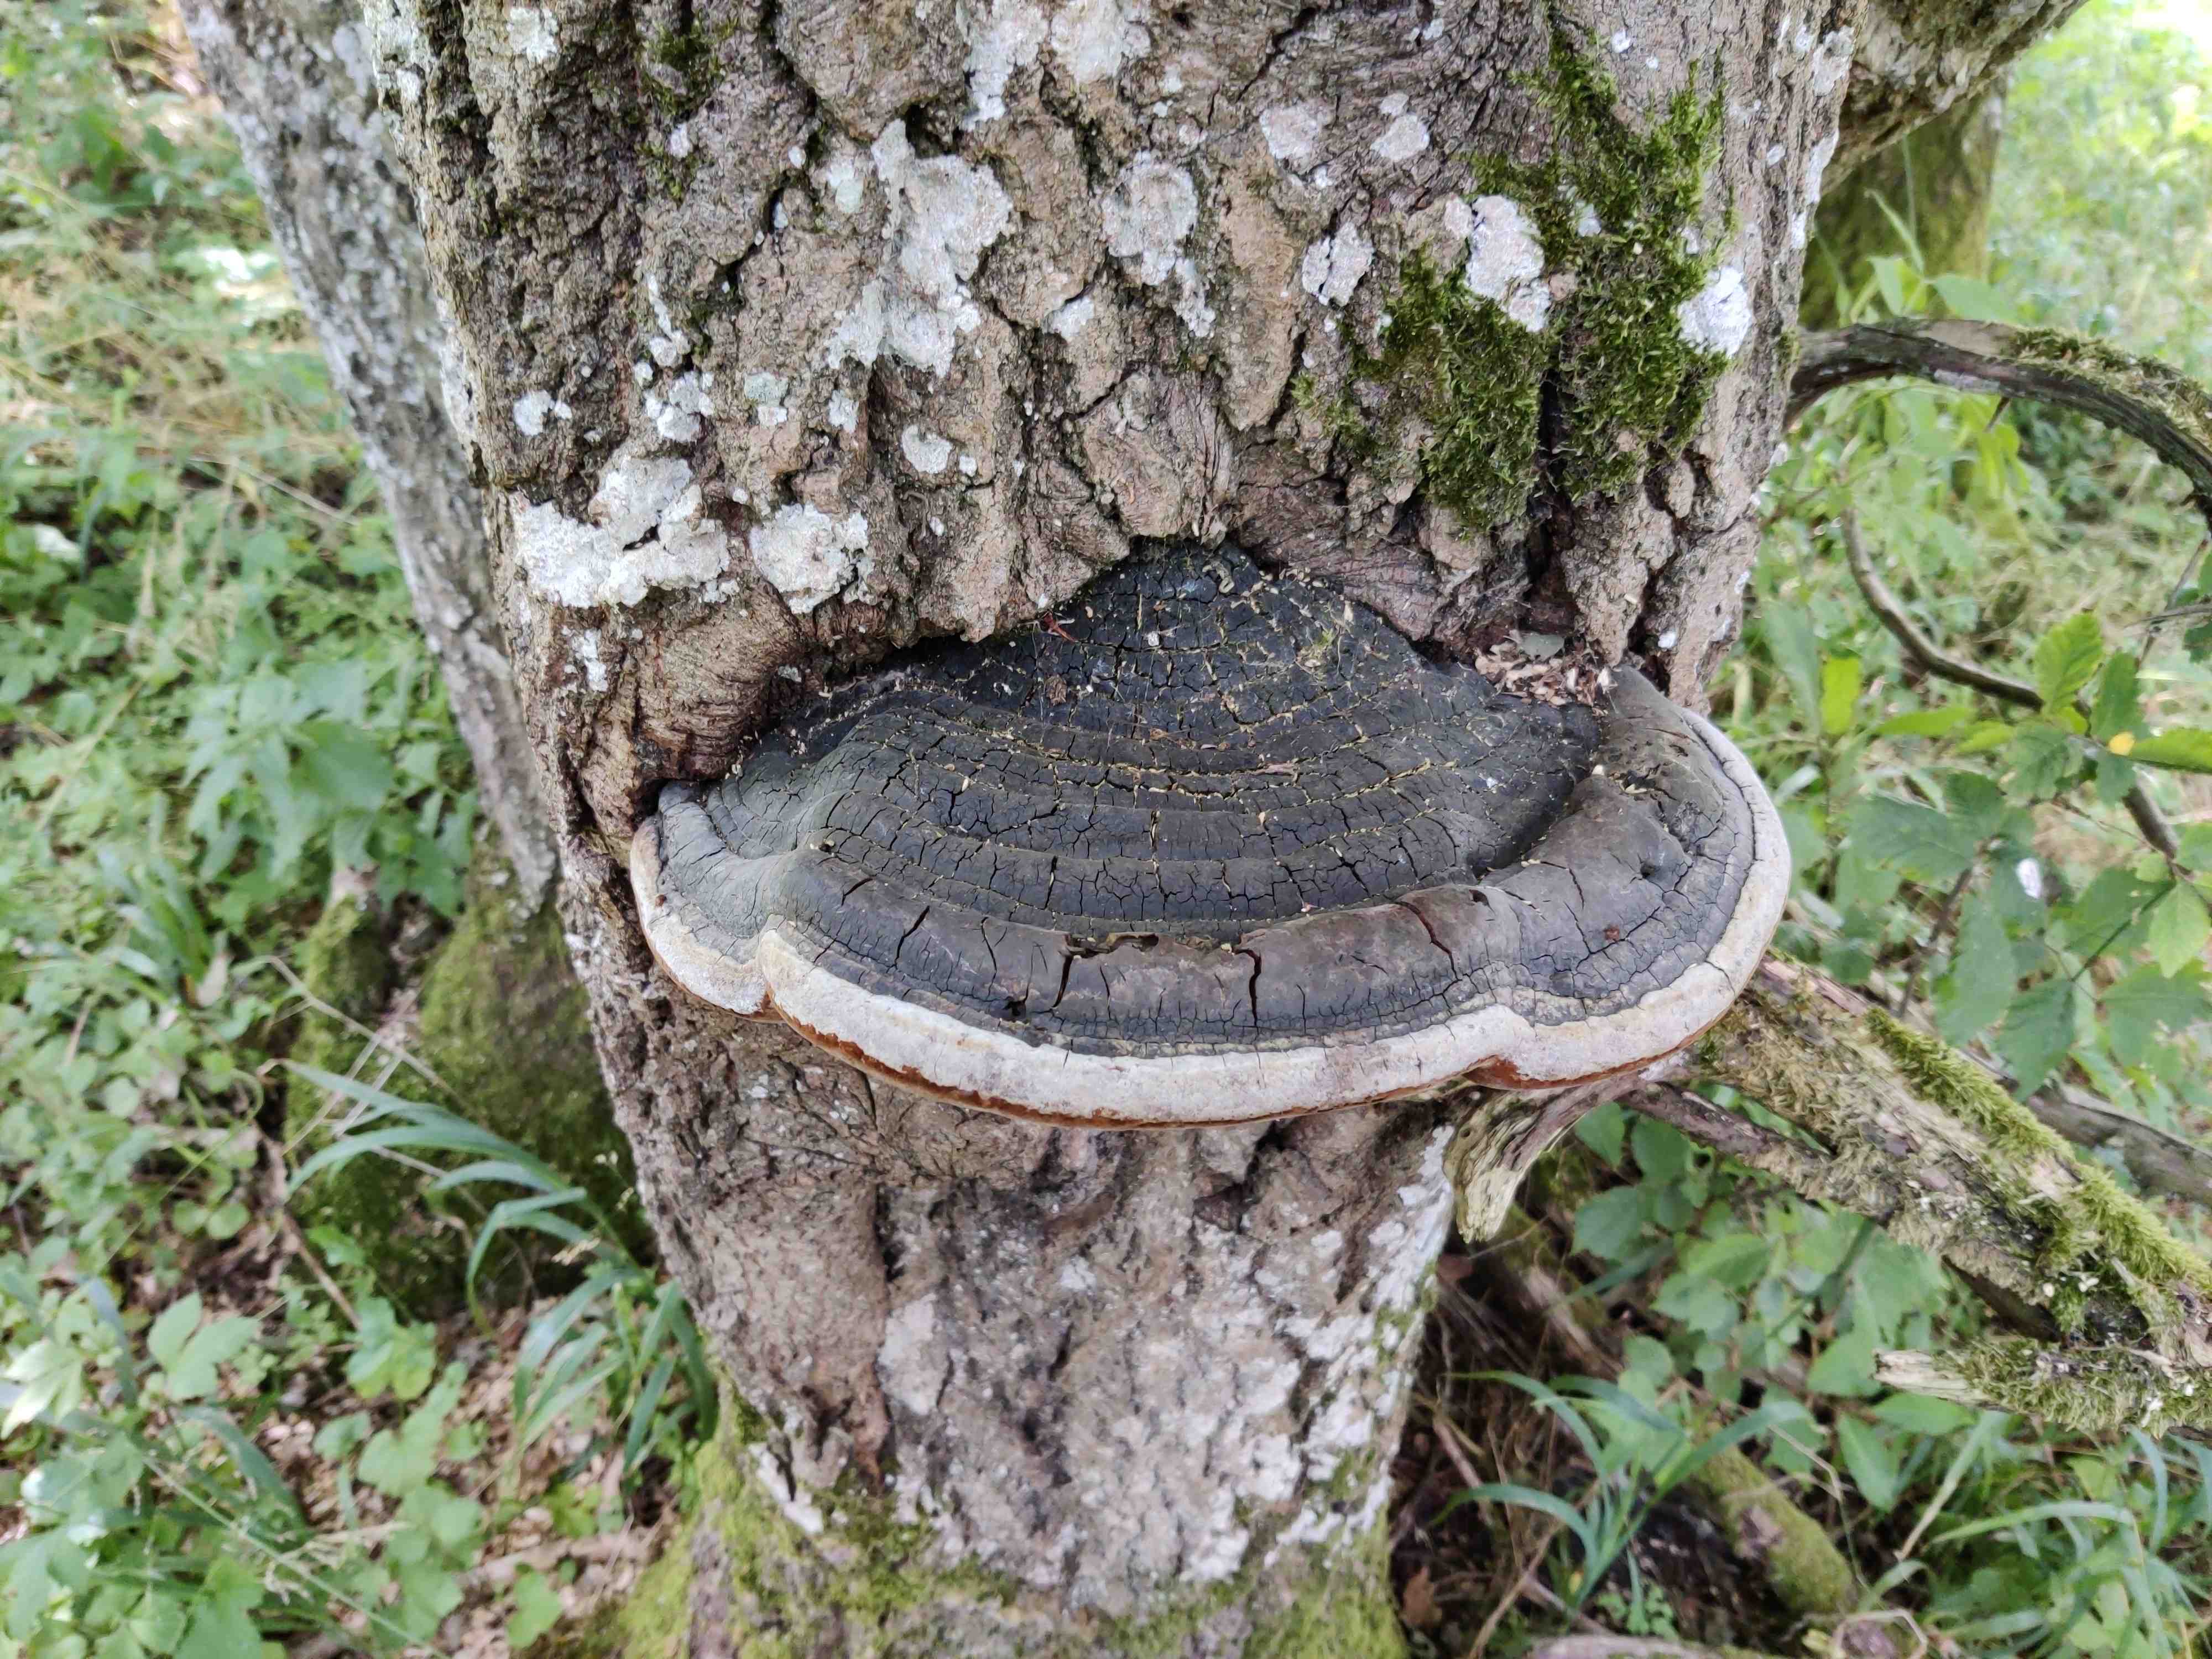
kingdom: Fungi
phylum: Basidiomycota
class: Agaricomycetes
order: Hymenochaetales
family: Hymenochaetaceae
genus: Phellinus
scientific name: Phellinus populicola
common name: poppel-ildporesvamp
